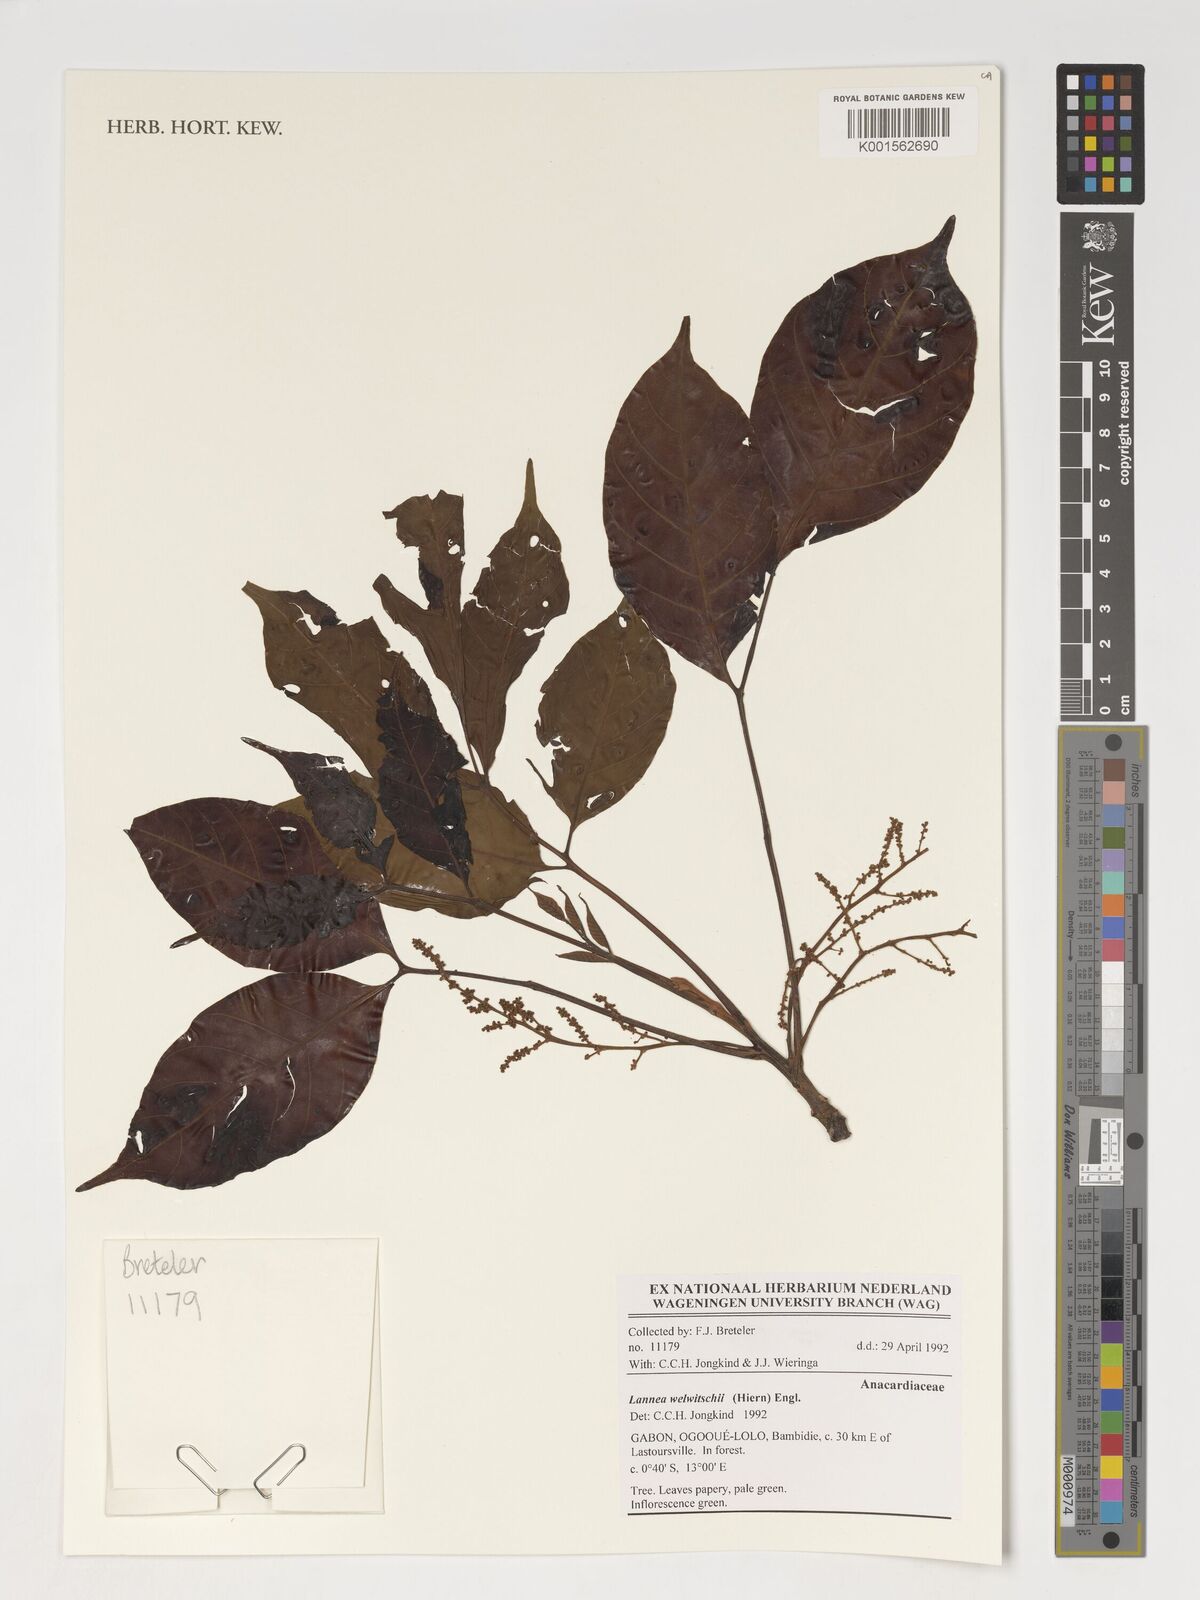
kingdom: Plantae
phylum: Tracheophyta
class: Magnoliopsida
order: Sapindales
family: Anacardiaceae
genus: Lannea
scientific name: Lannea welwitschii
